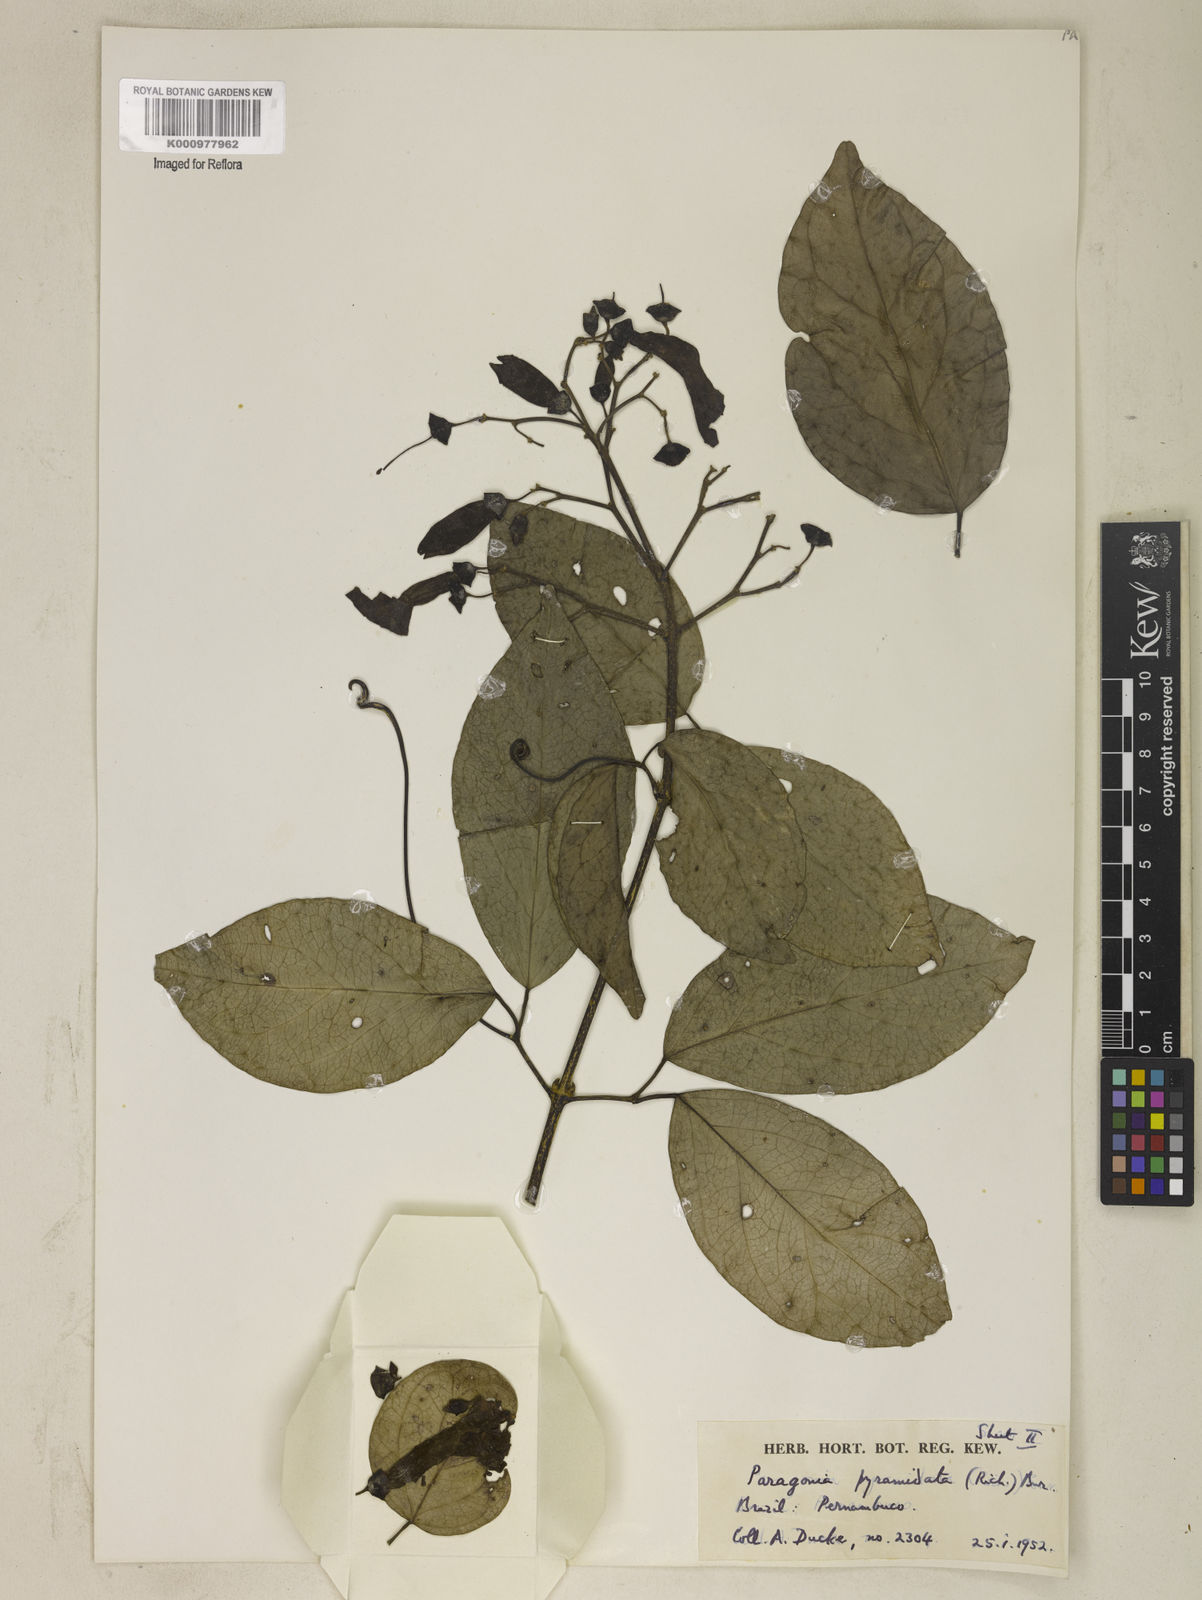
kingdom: Plantae
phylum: Tracheophyta
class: Magnoliopsida
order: Lamiales
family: Bignoniaceae
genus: Tanaecium
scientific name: Tanaecium pyramidatum
